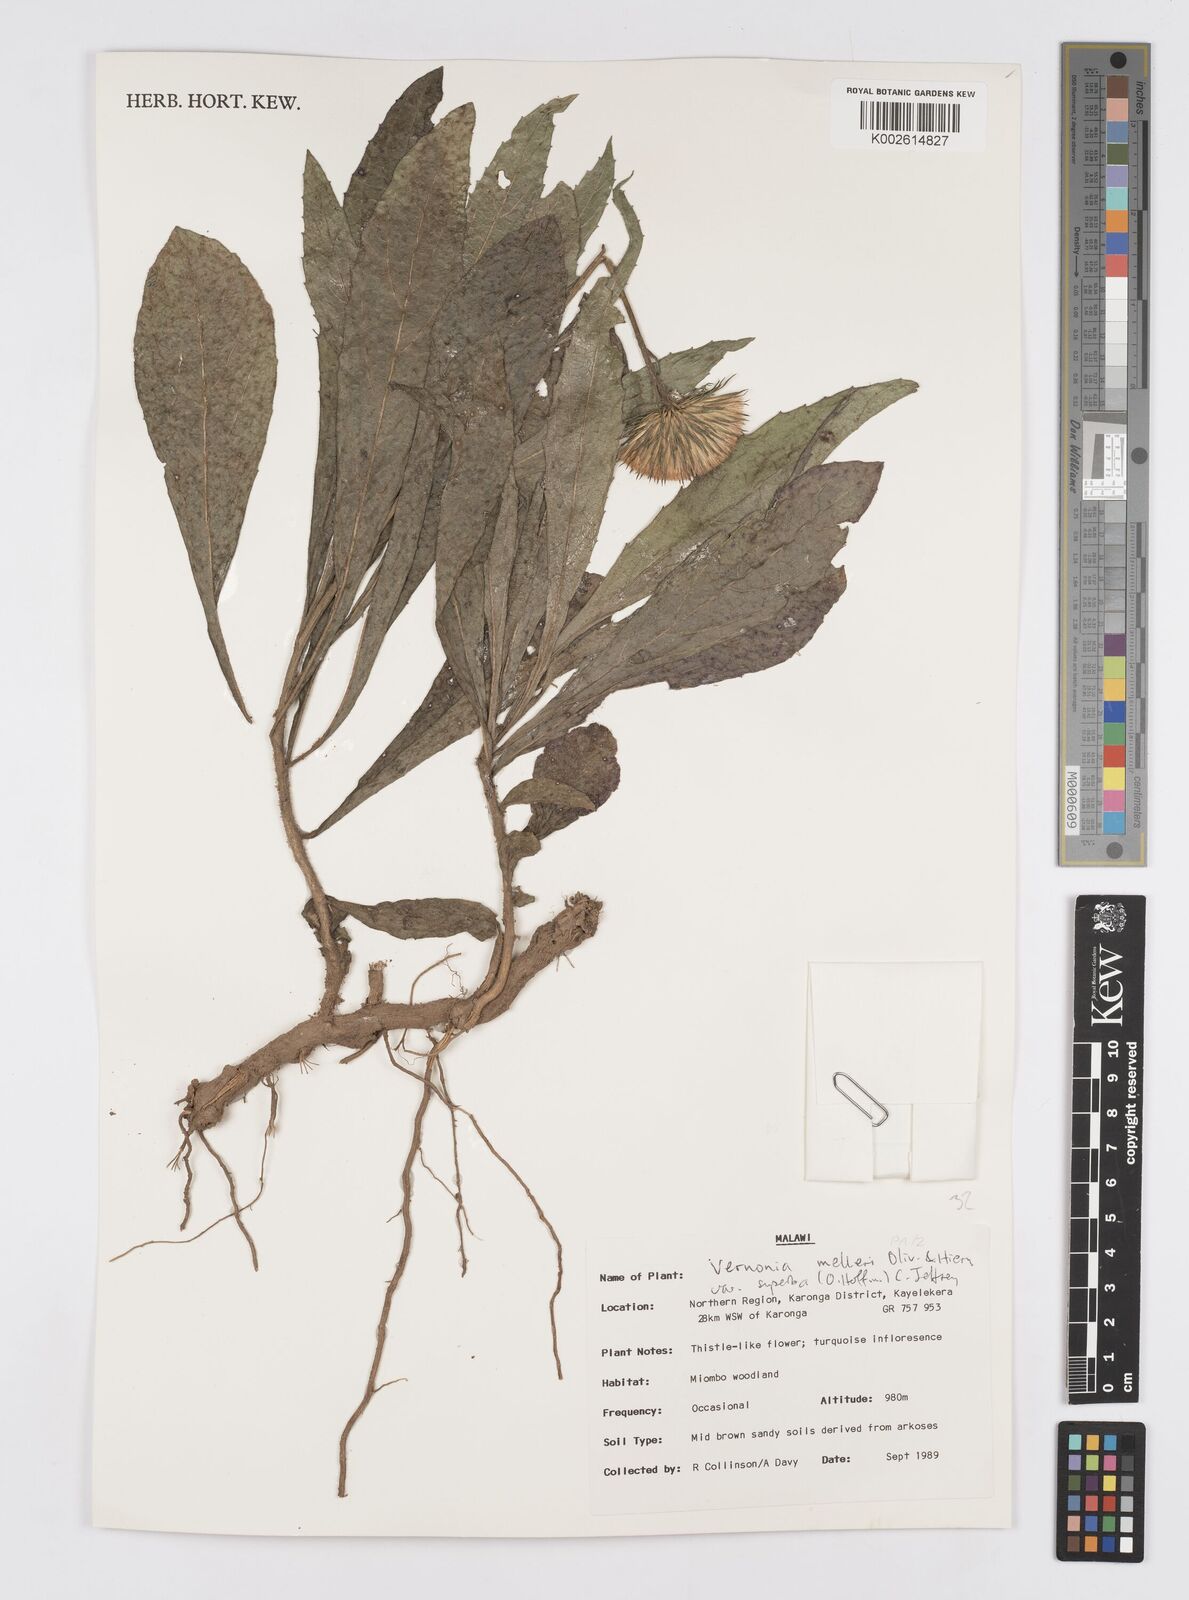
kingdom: Plantae
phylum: Tracheophyta
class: Magnoliopsida
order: Asterales
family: Asteraceae
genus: Linzia
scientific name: Linzia melleri
